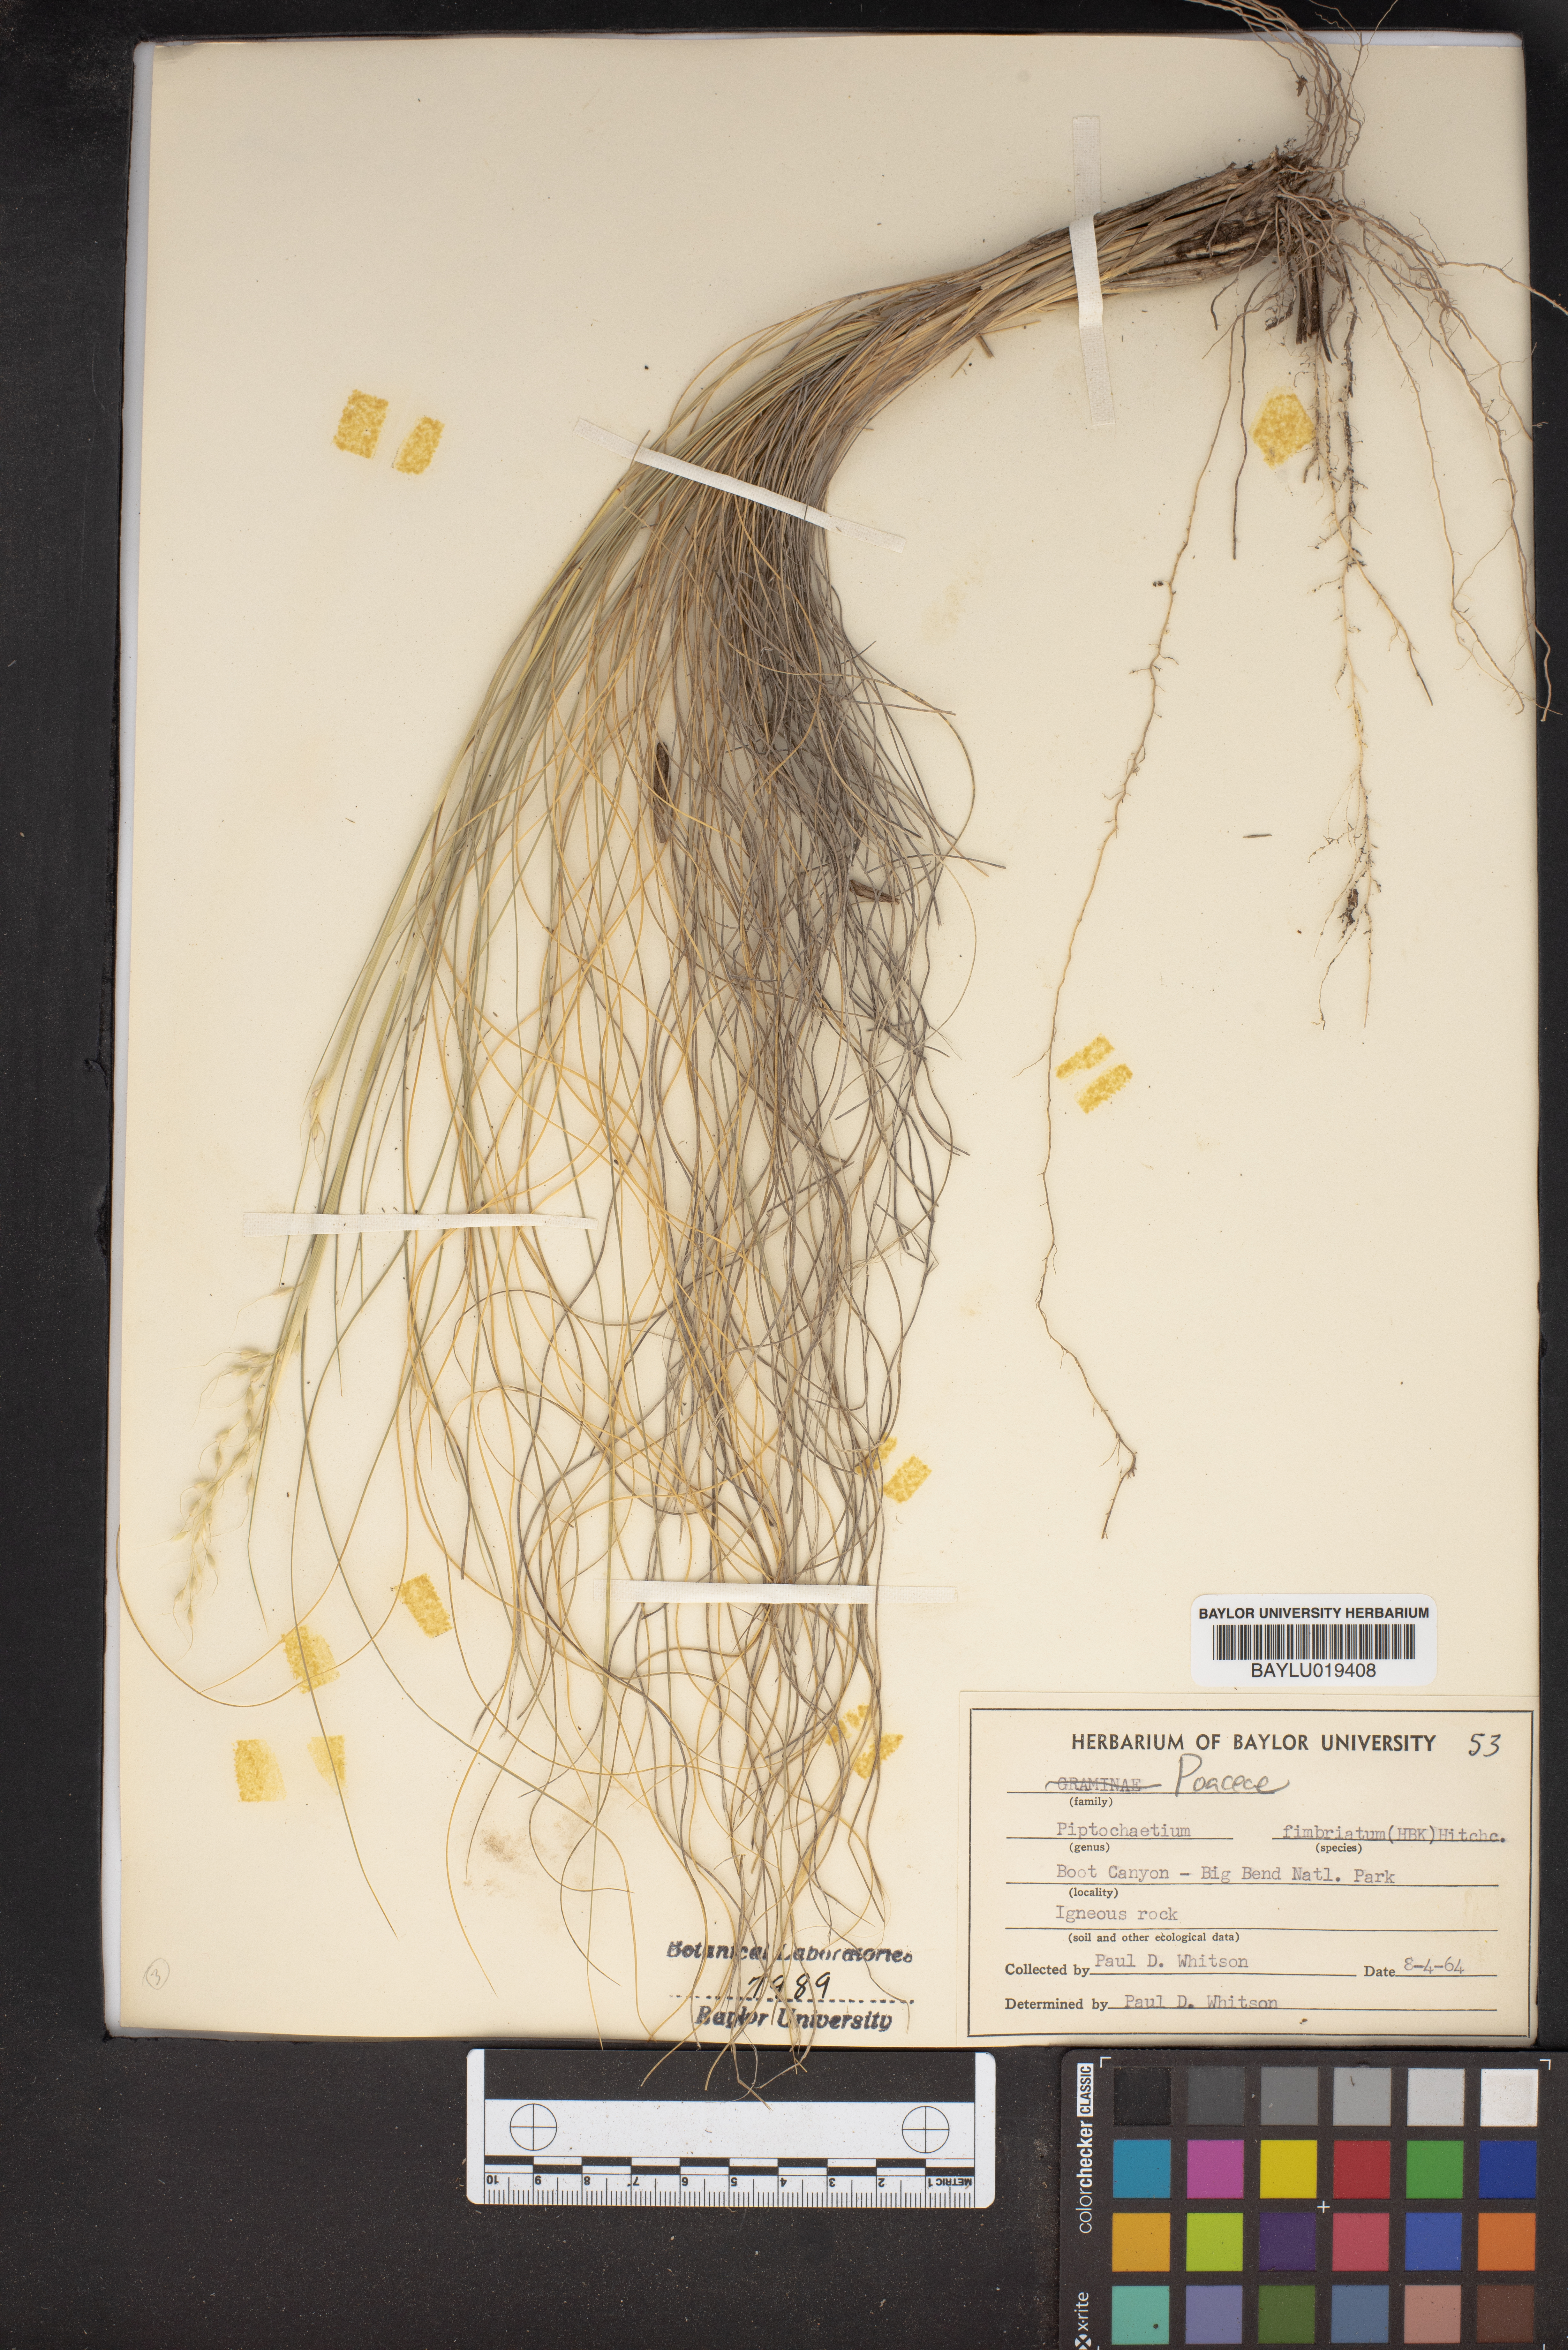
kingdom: Plantae
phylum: Tracheophyta
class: Liliopsida
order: Poales
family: Poaceae
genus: Piptochaetium
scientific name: Piptochaetium fimbriatum
